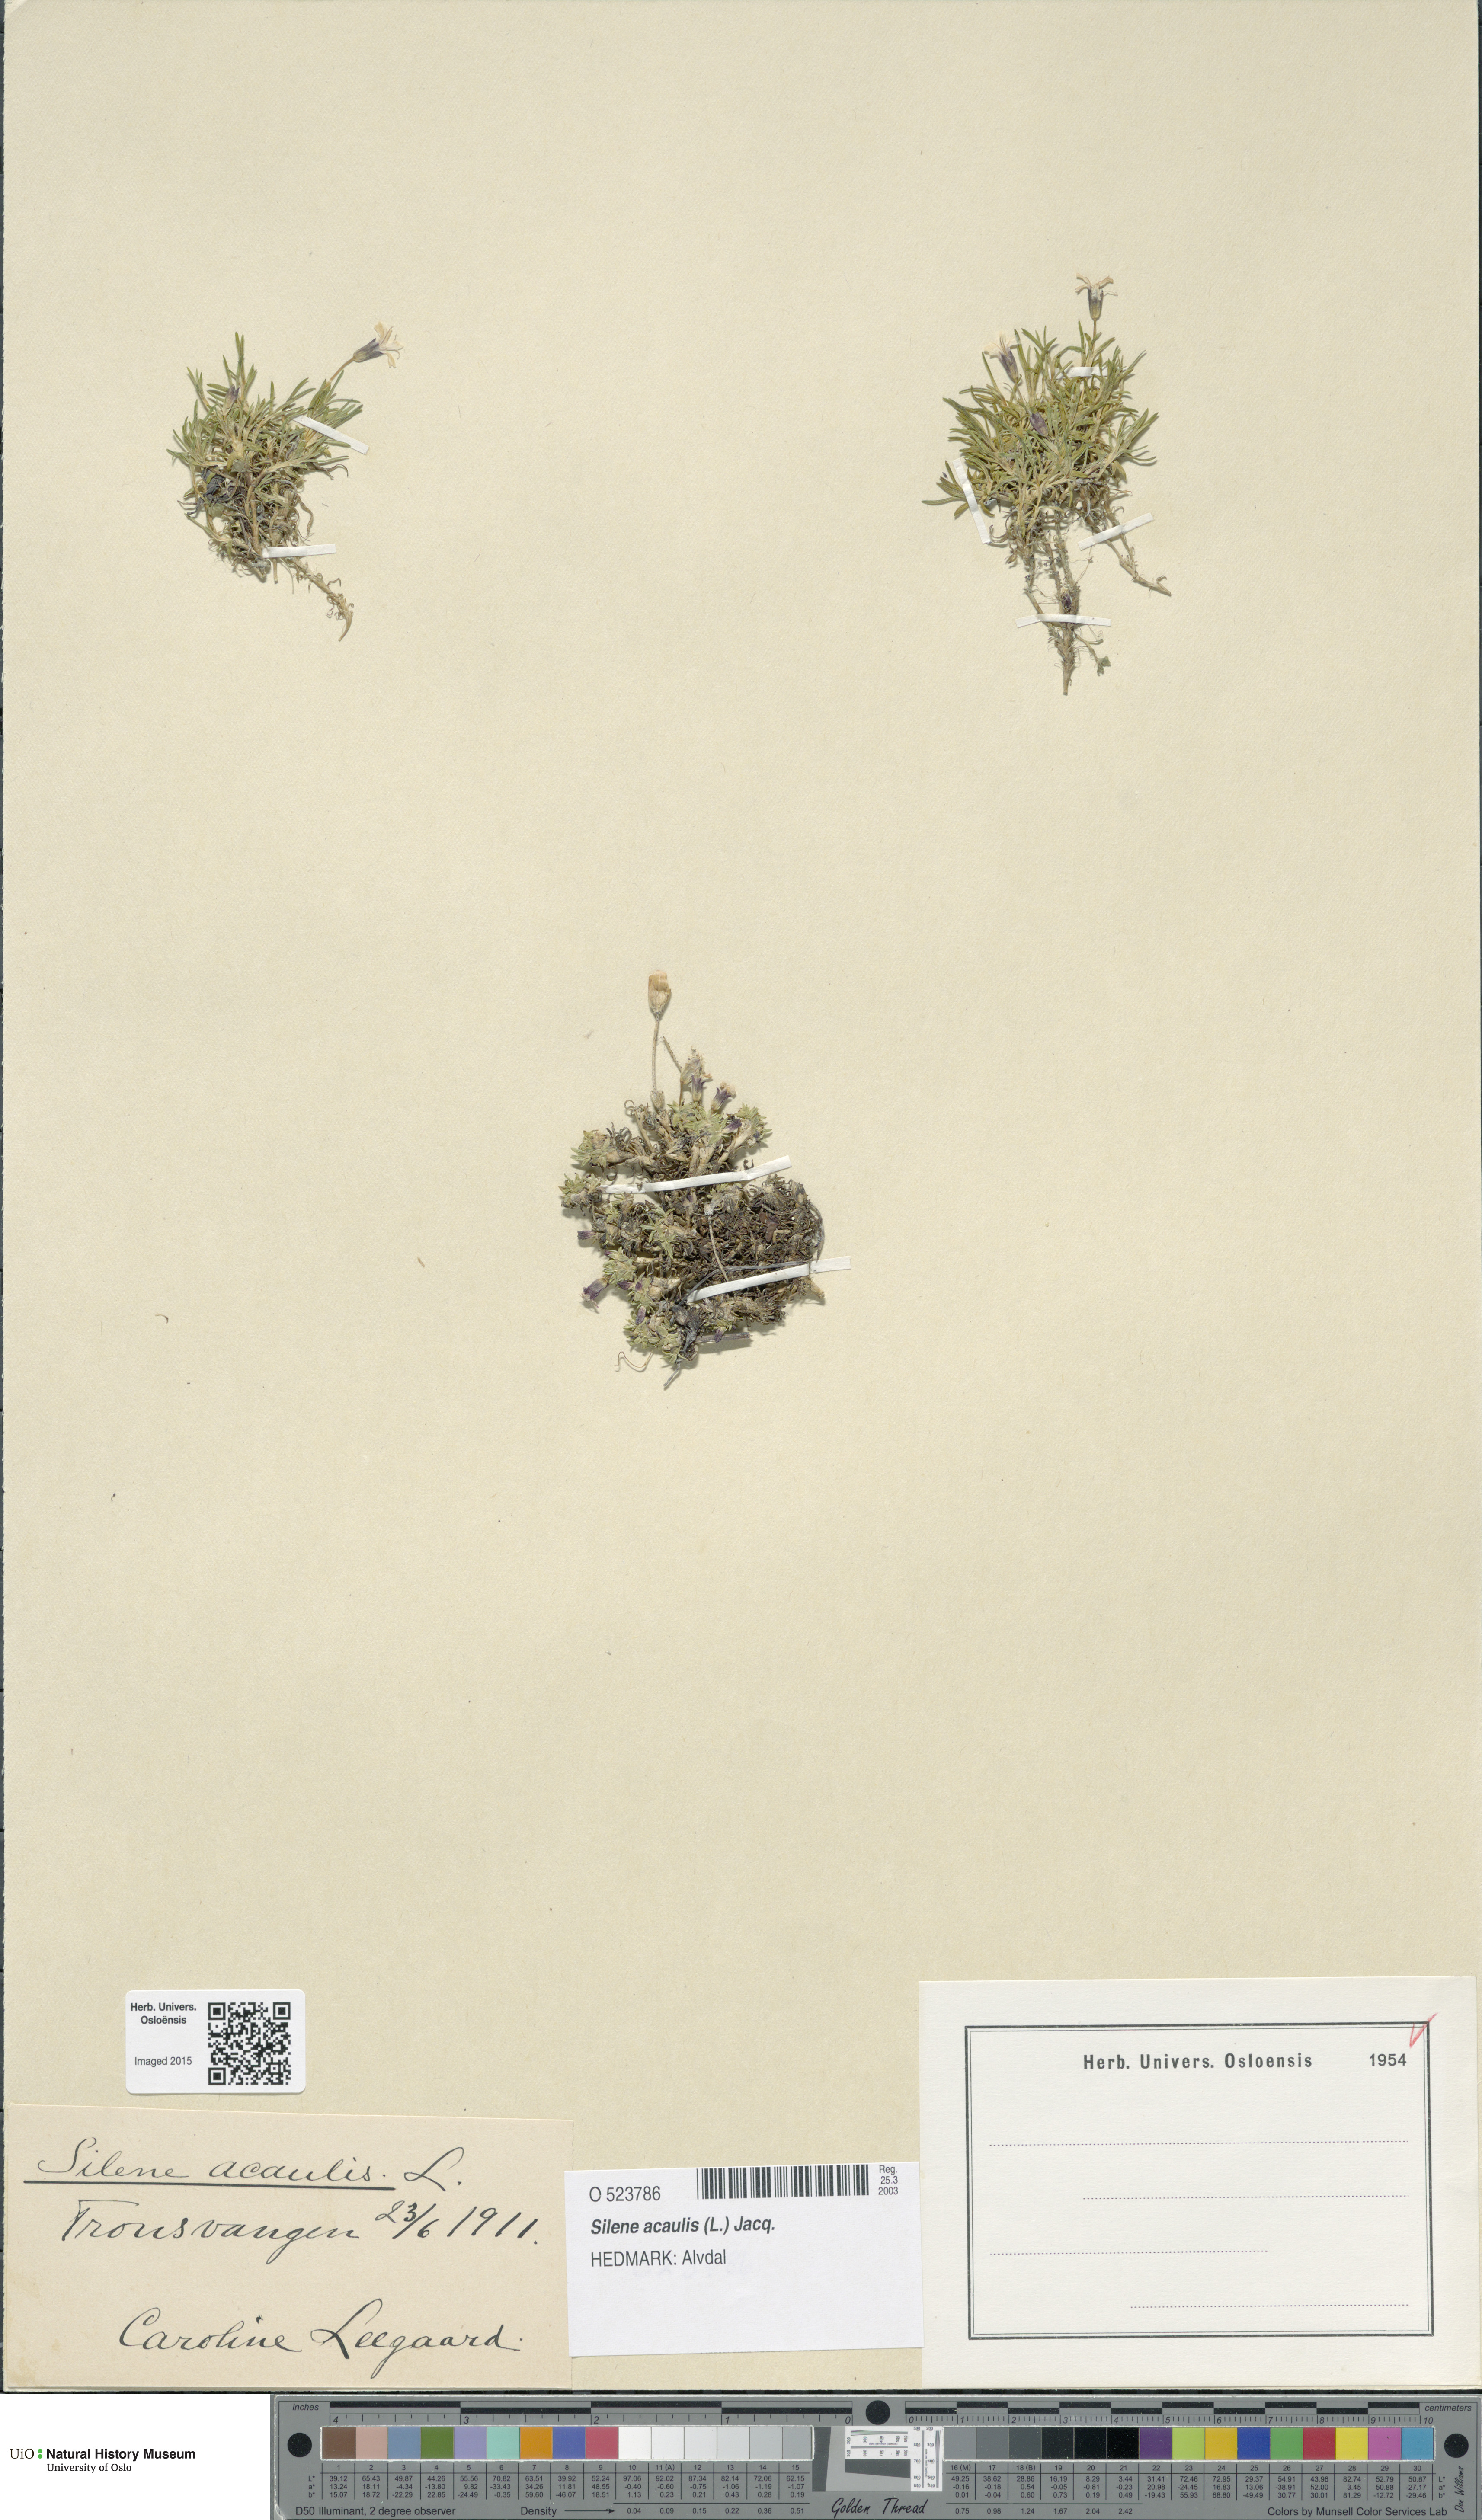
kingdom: Plantae
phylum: Tracheophyta
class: Magnoliopsida
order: Caryophyllales
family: Caryophyllaceae
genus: Silene
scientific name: Silene acaulis
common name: Moss campion
